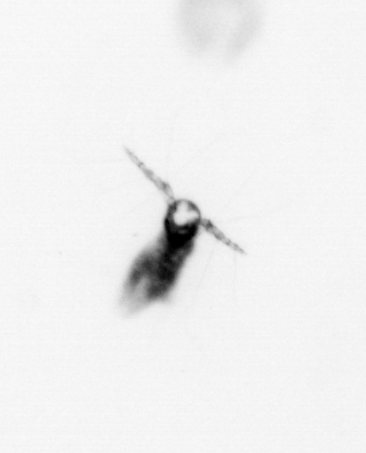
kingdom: Animalia
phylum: Arthropoda
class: Copepoda
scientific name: Copepoda
